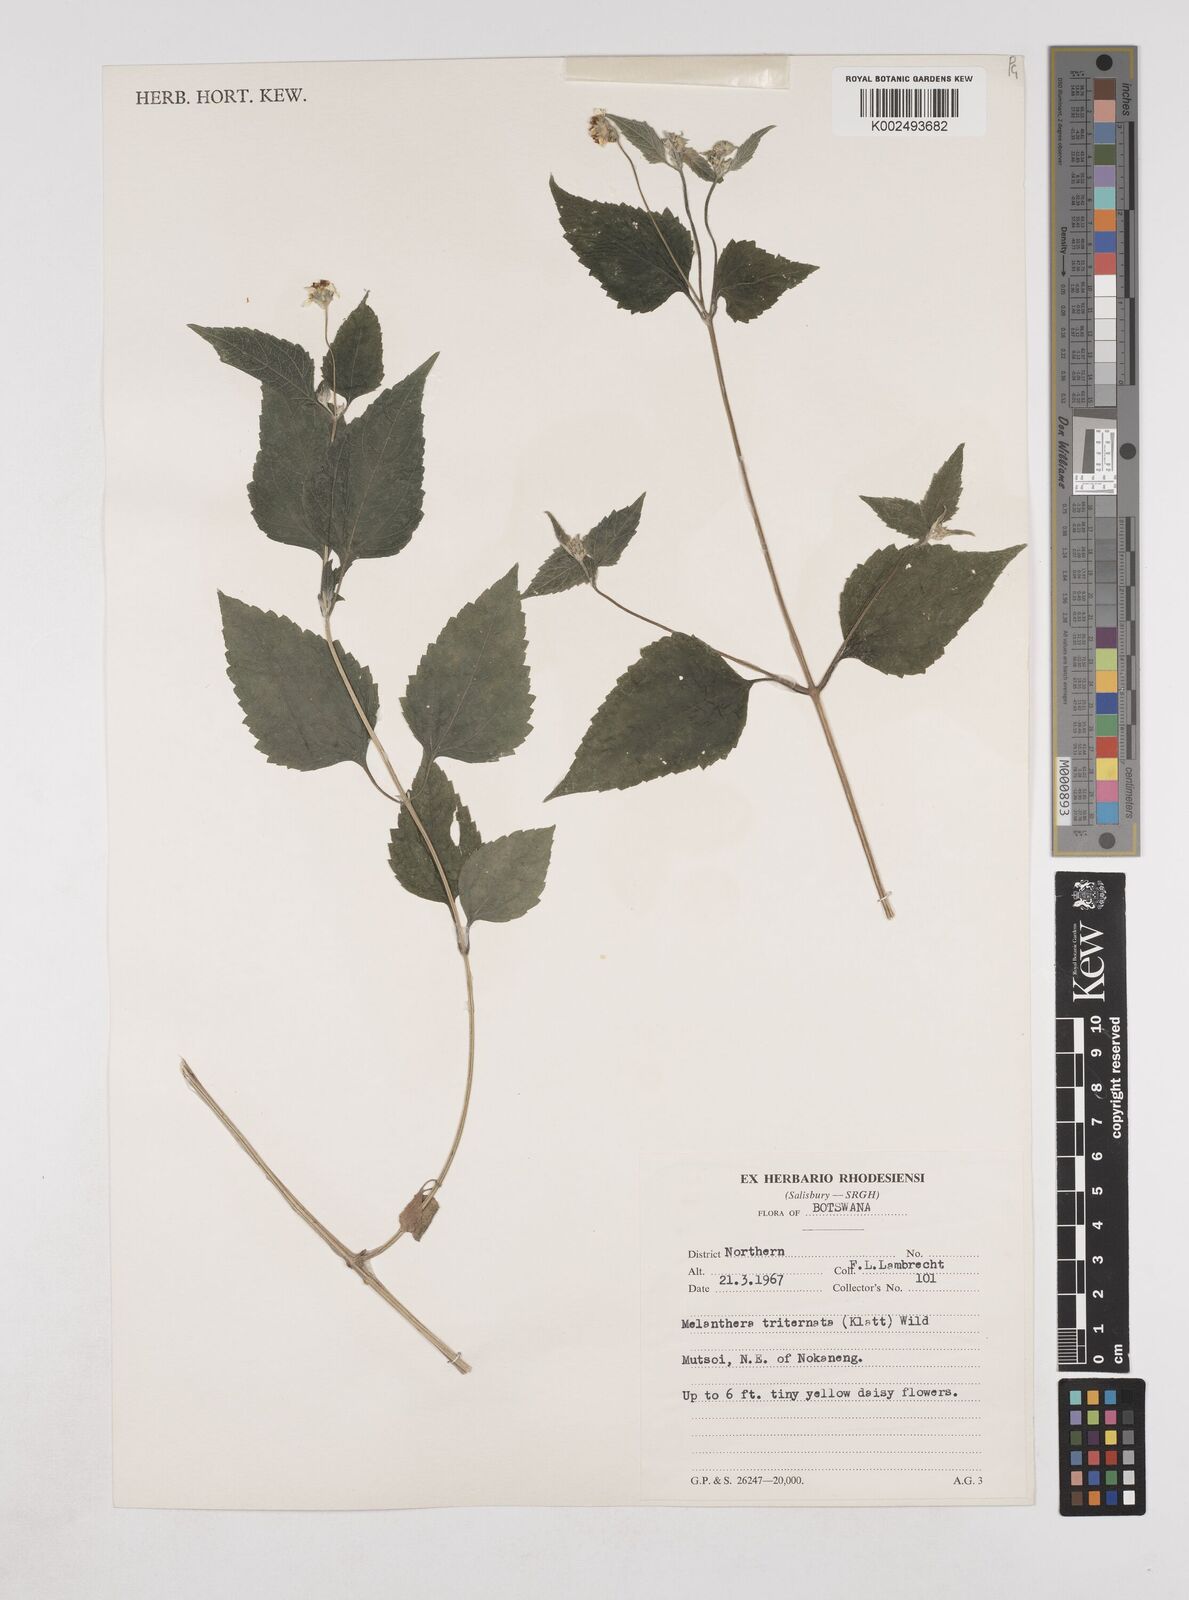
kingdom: Plantae
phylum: Tracheophyta
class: Magnoliopsida
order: Asterales
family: Asteraceae
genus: Lipotriche
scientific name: Lipotriche marlothiana
